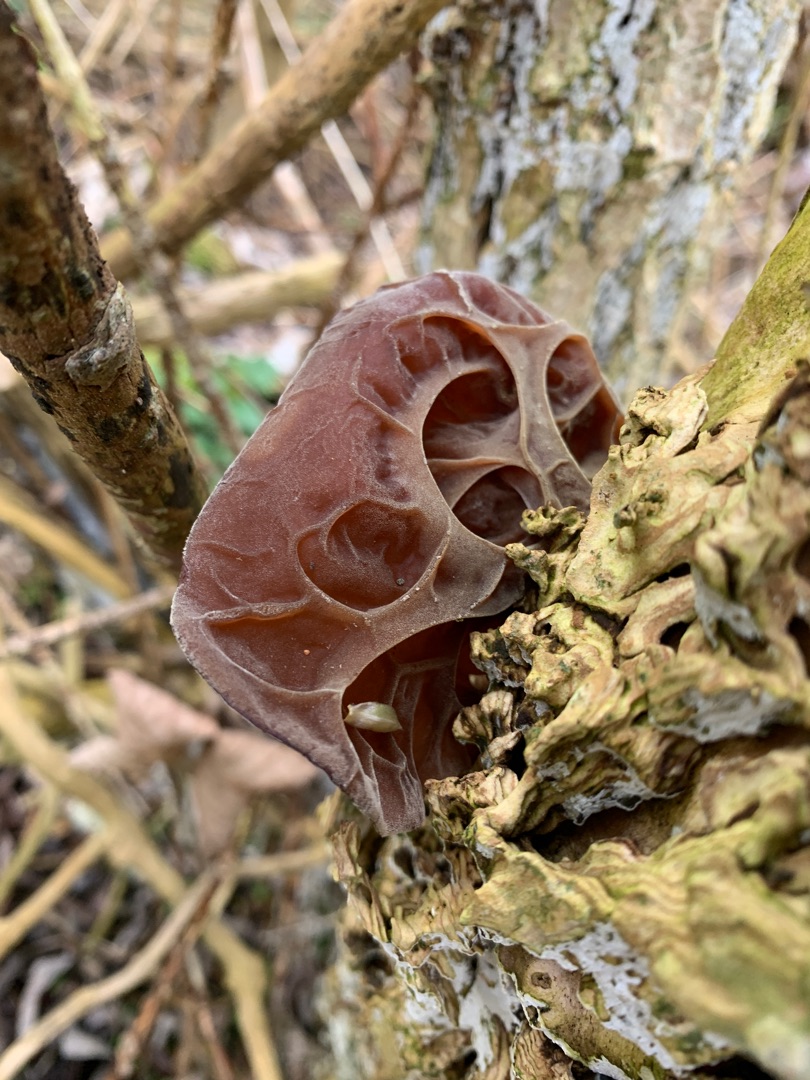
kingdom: Fungi
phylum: Basidiomycota
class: Agaricomycetes
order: Auriculariales
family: Auriculariaceae
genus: Auricularia
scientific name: Auricularia auricula-judae
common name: Almindelig judasøre
